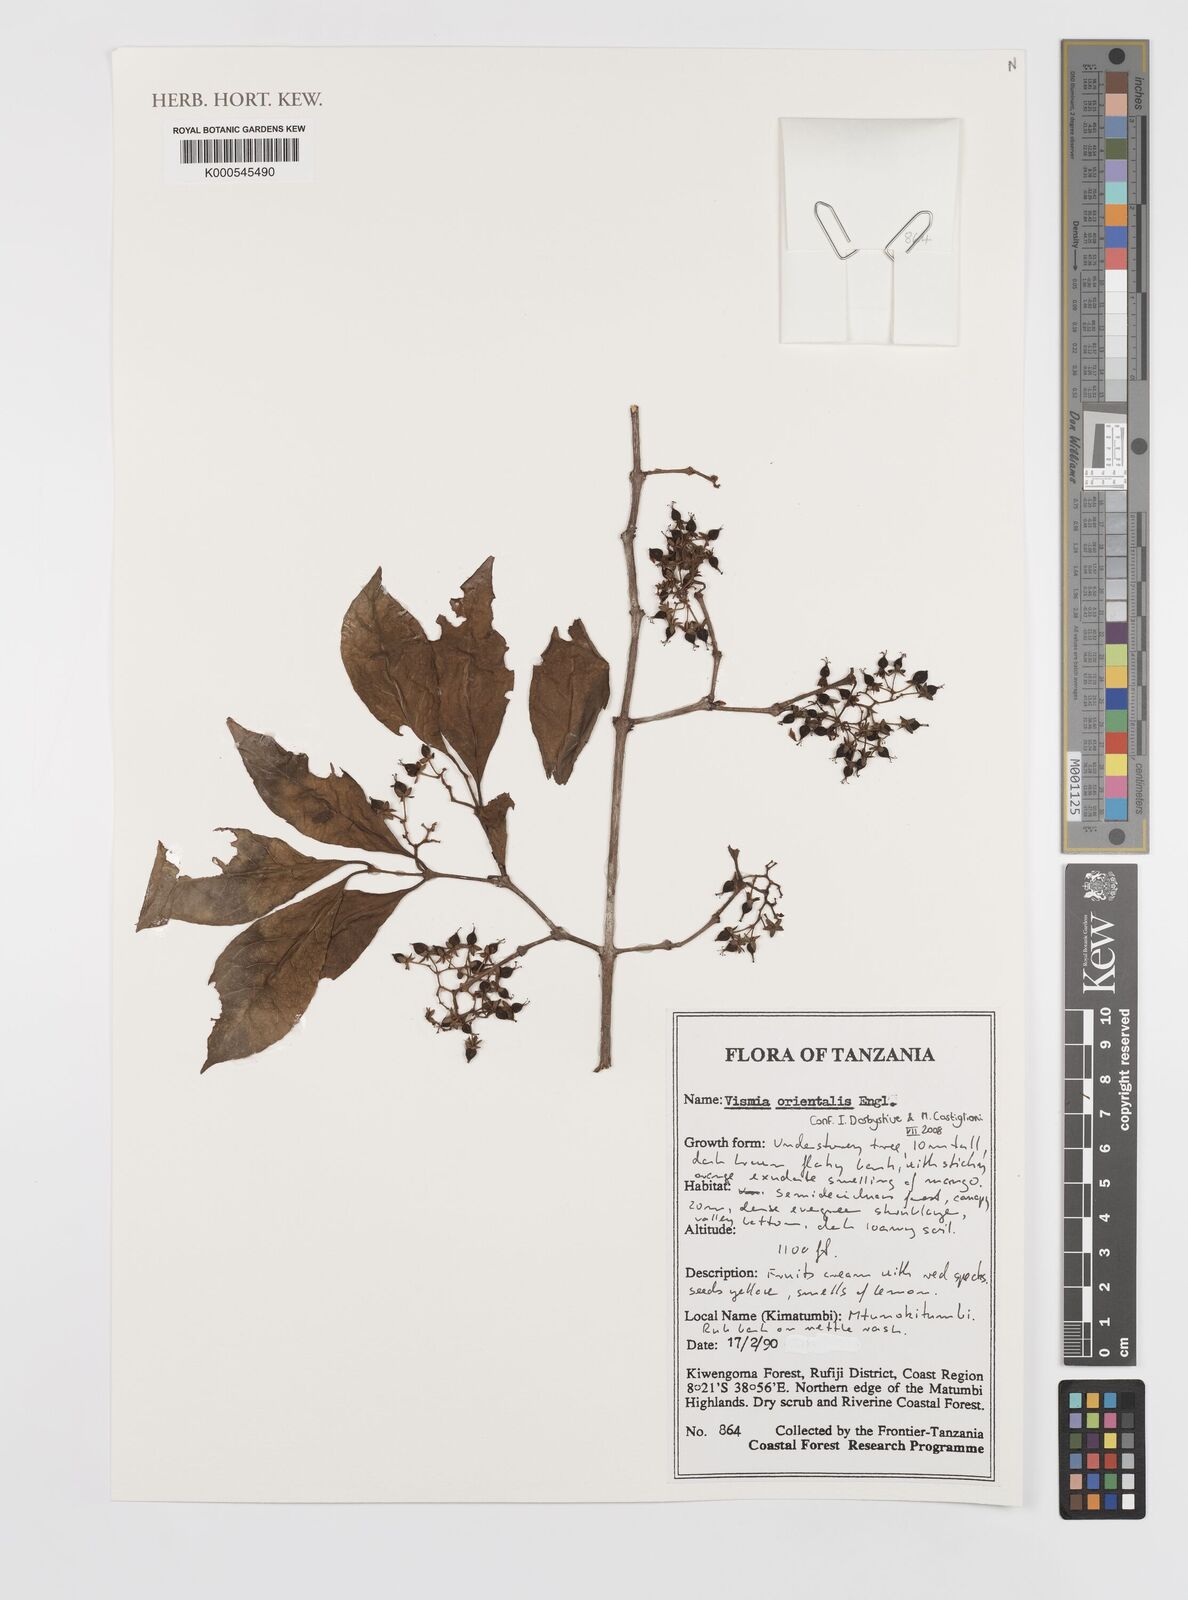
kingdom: Plantae
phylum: Tracheophyta
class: Magnoliopsida
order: Malpighiales
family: Hypericaceae
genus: Psorospermum
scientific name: Psorospermum orientale
